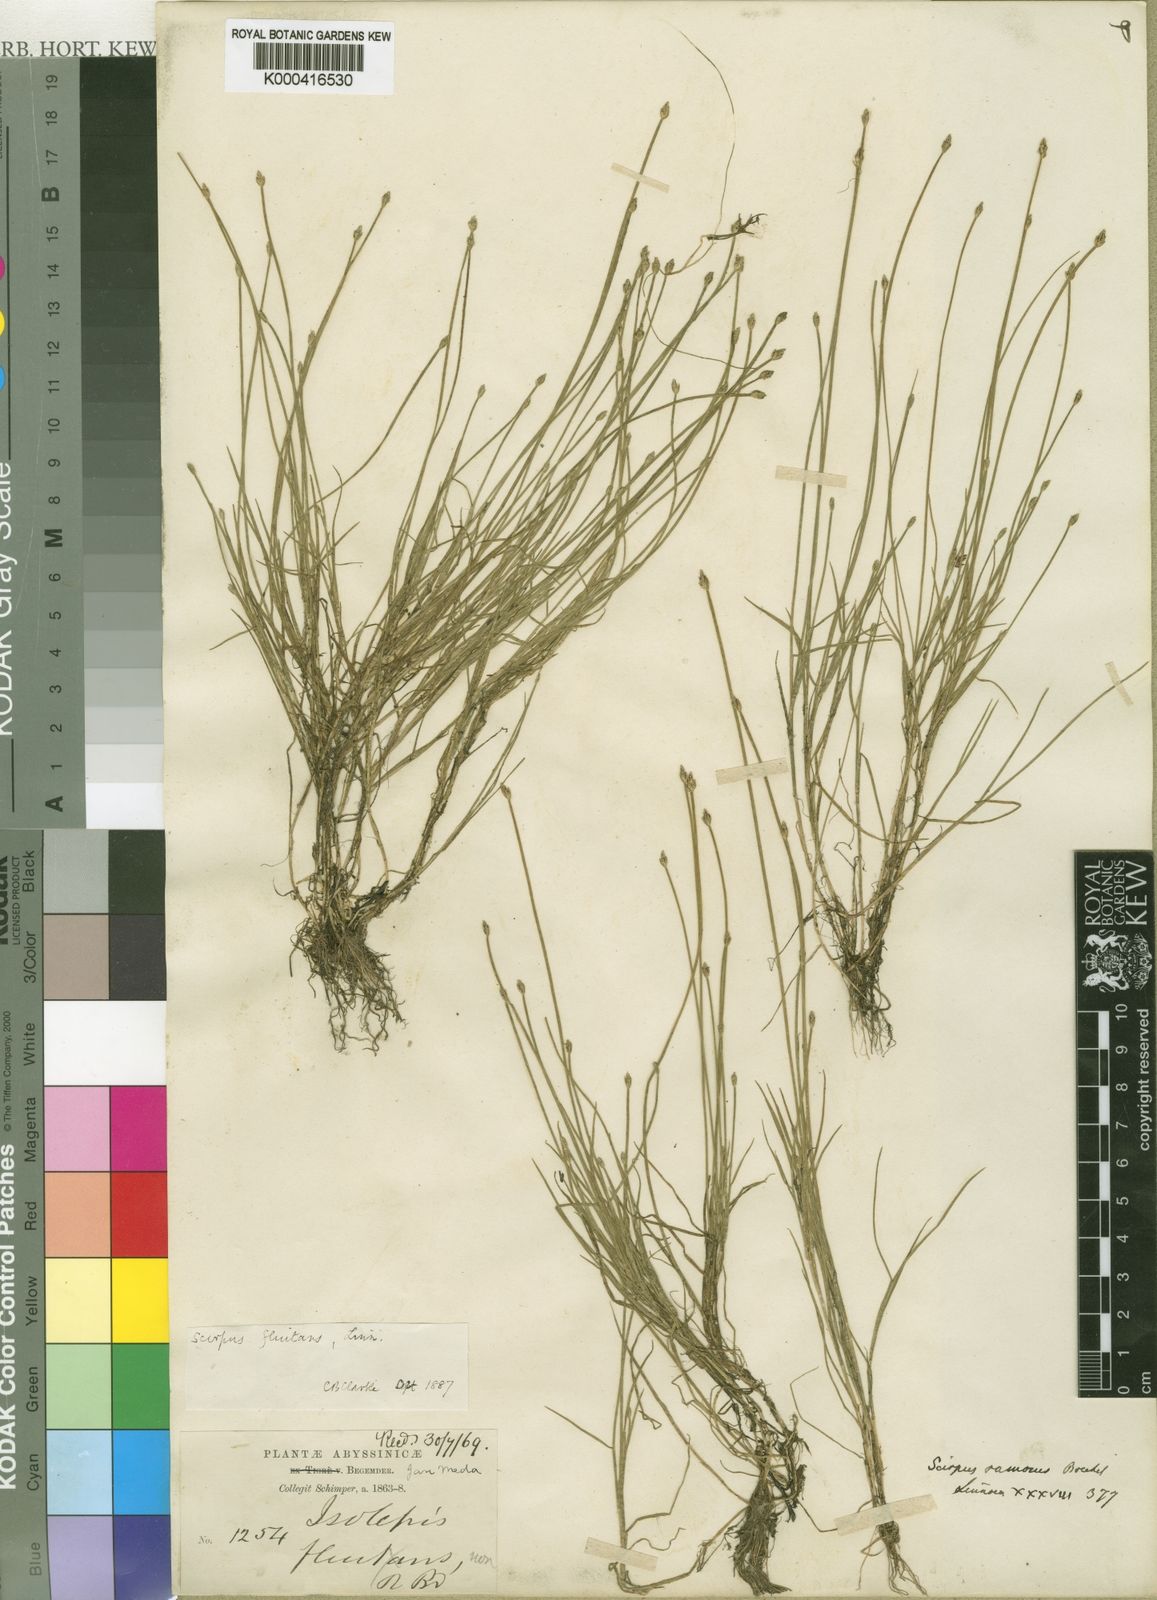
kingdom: Plantae
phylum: Tracheophyta
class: Liliopsida
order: Poales
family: Cyperaceae
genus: Isolepis
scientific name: Isolepis fluitans
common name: Floating club-rush
